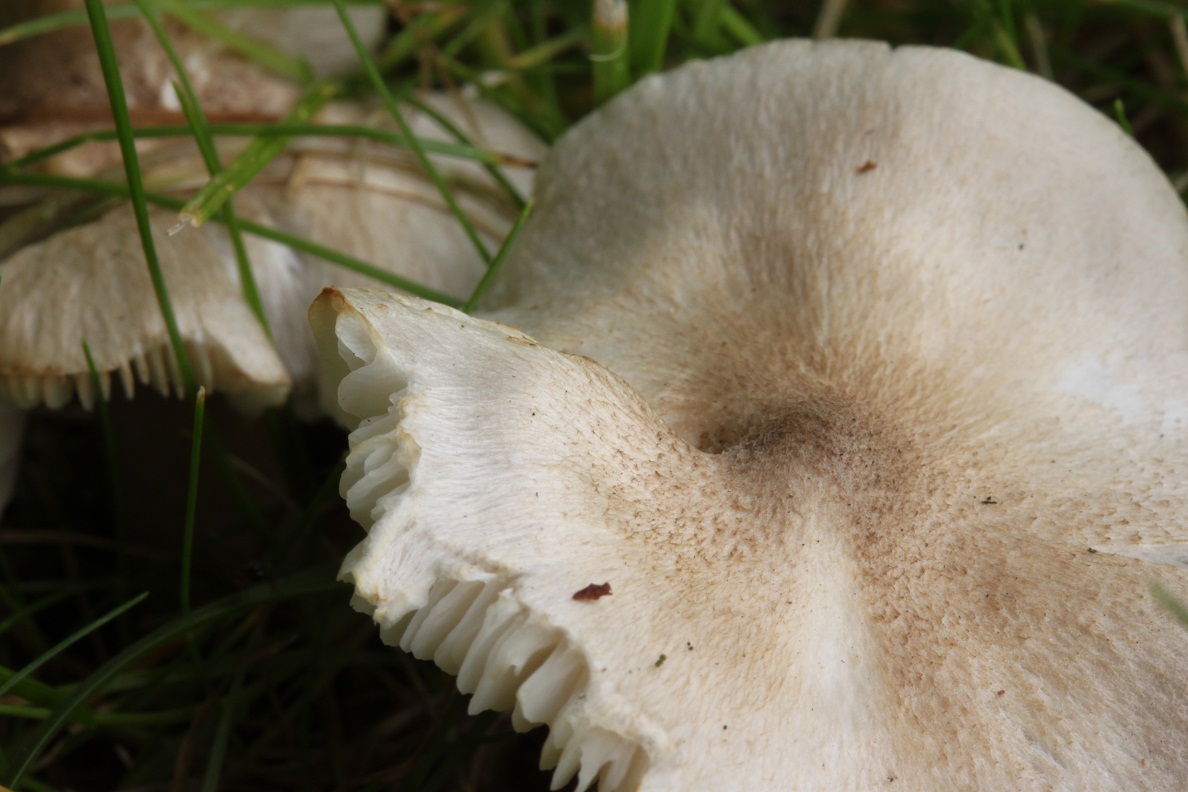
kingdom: Fungi
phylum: Basidiomycota
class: Agaricomycetes
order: Agaricales
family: Tricholomataceae
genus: Tricholoma
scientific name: Tricholoma argyraceum
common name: spids ridderhat
